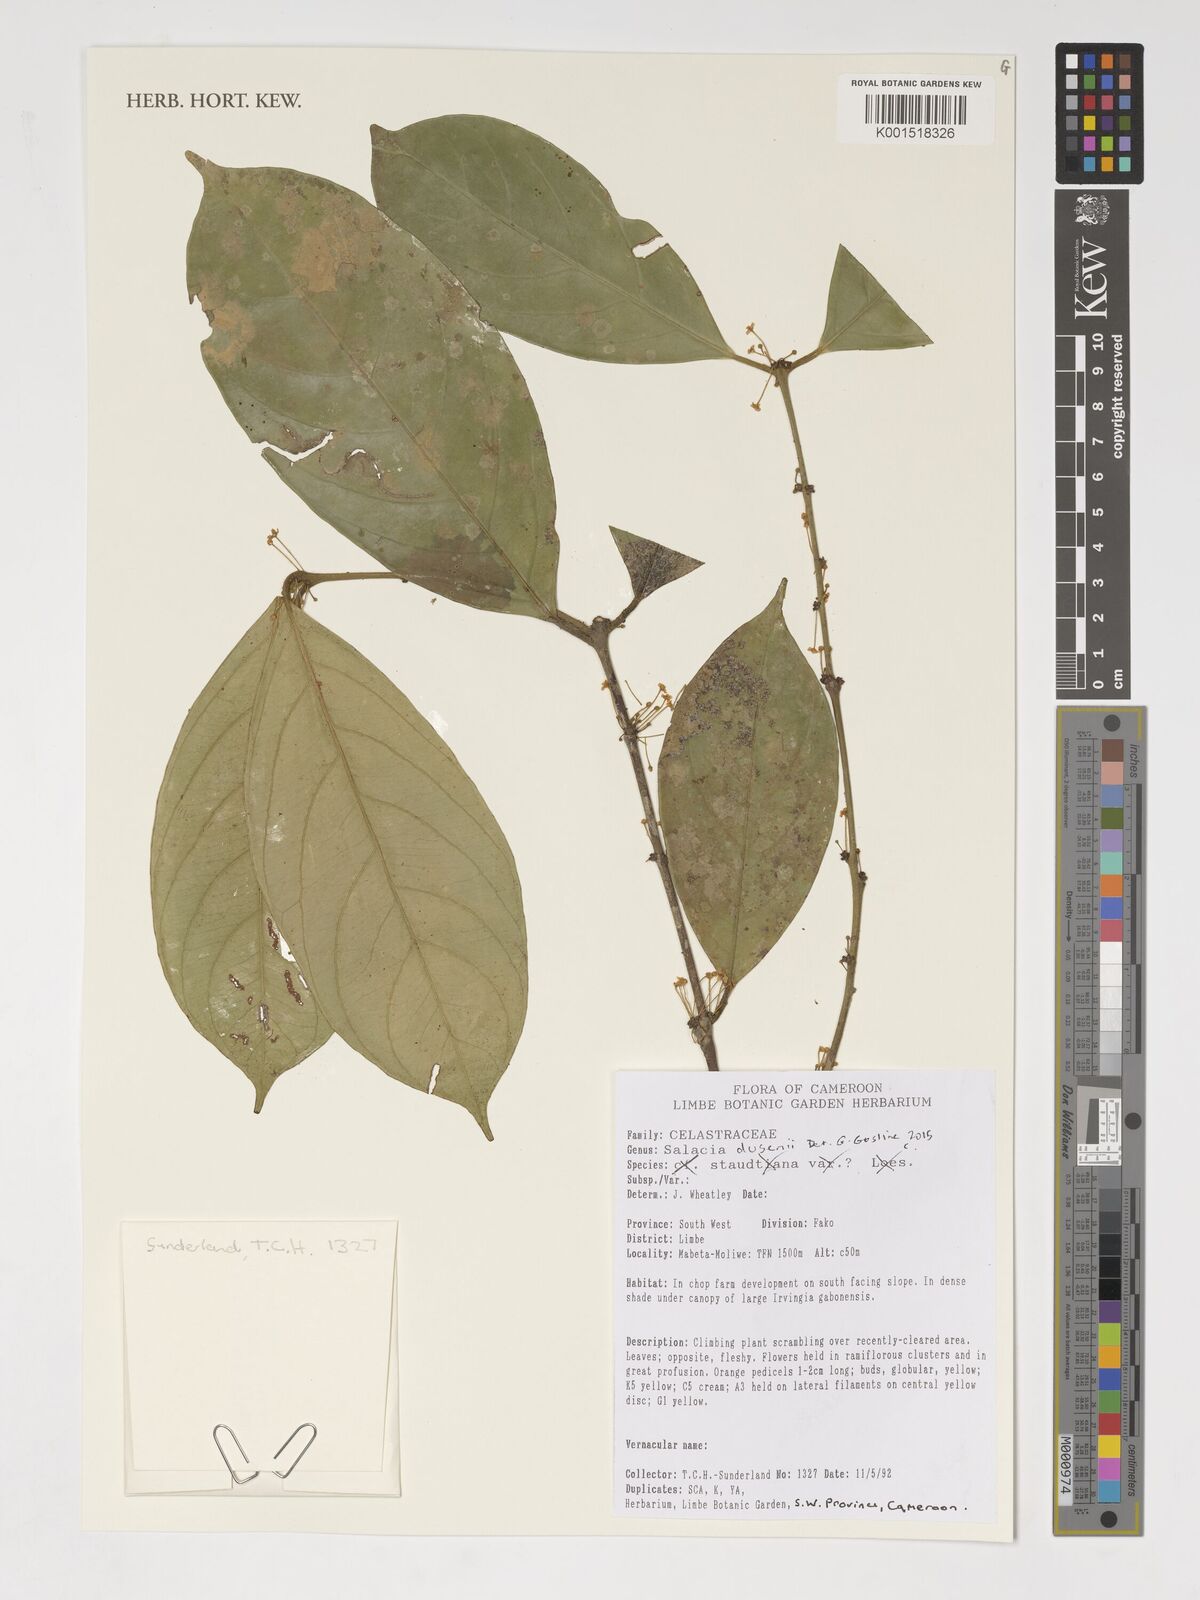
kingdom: Plantae
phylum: Tracheophyta
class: Magnoliopsida
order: Celastrales
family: Celastraceae
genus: Salacia
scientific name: Salacia dusenii
